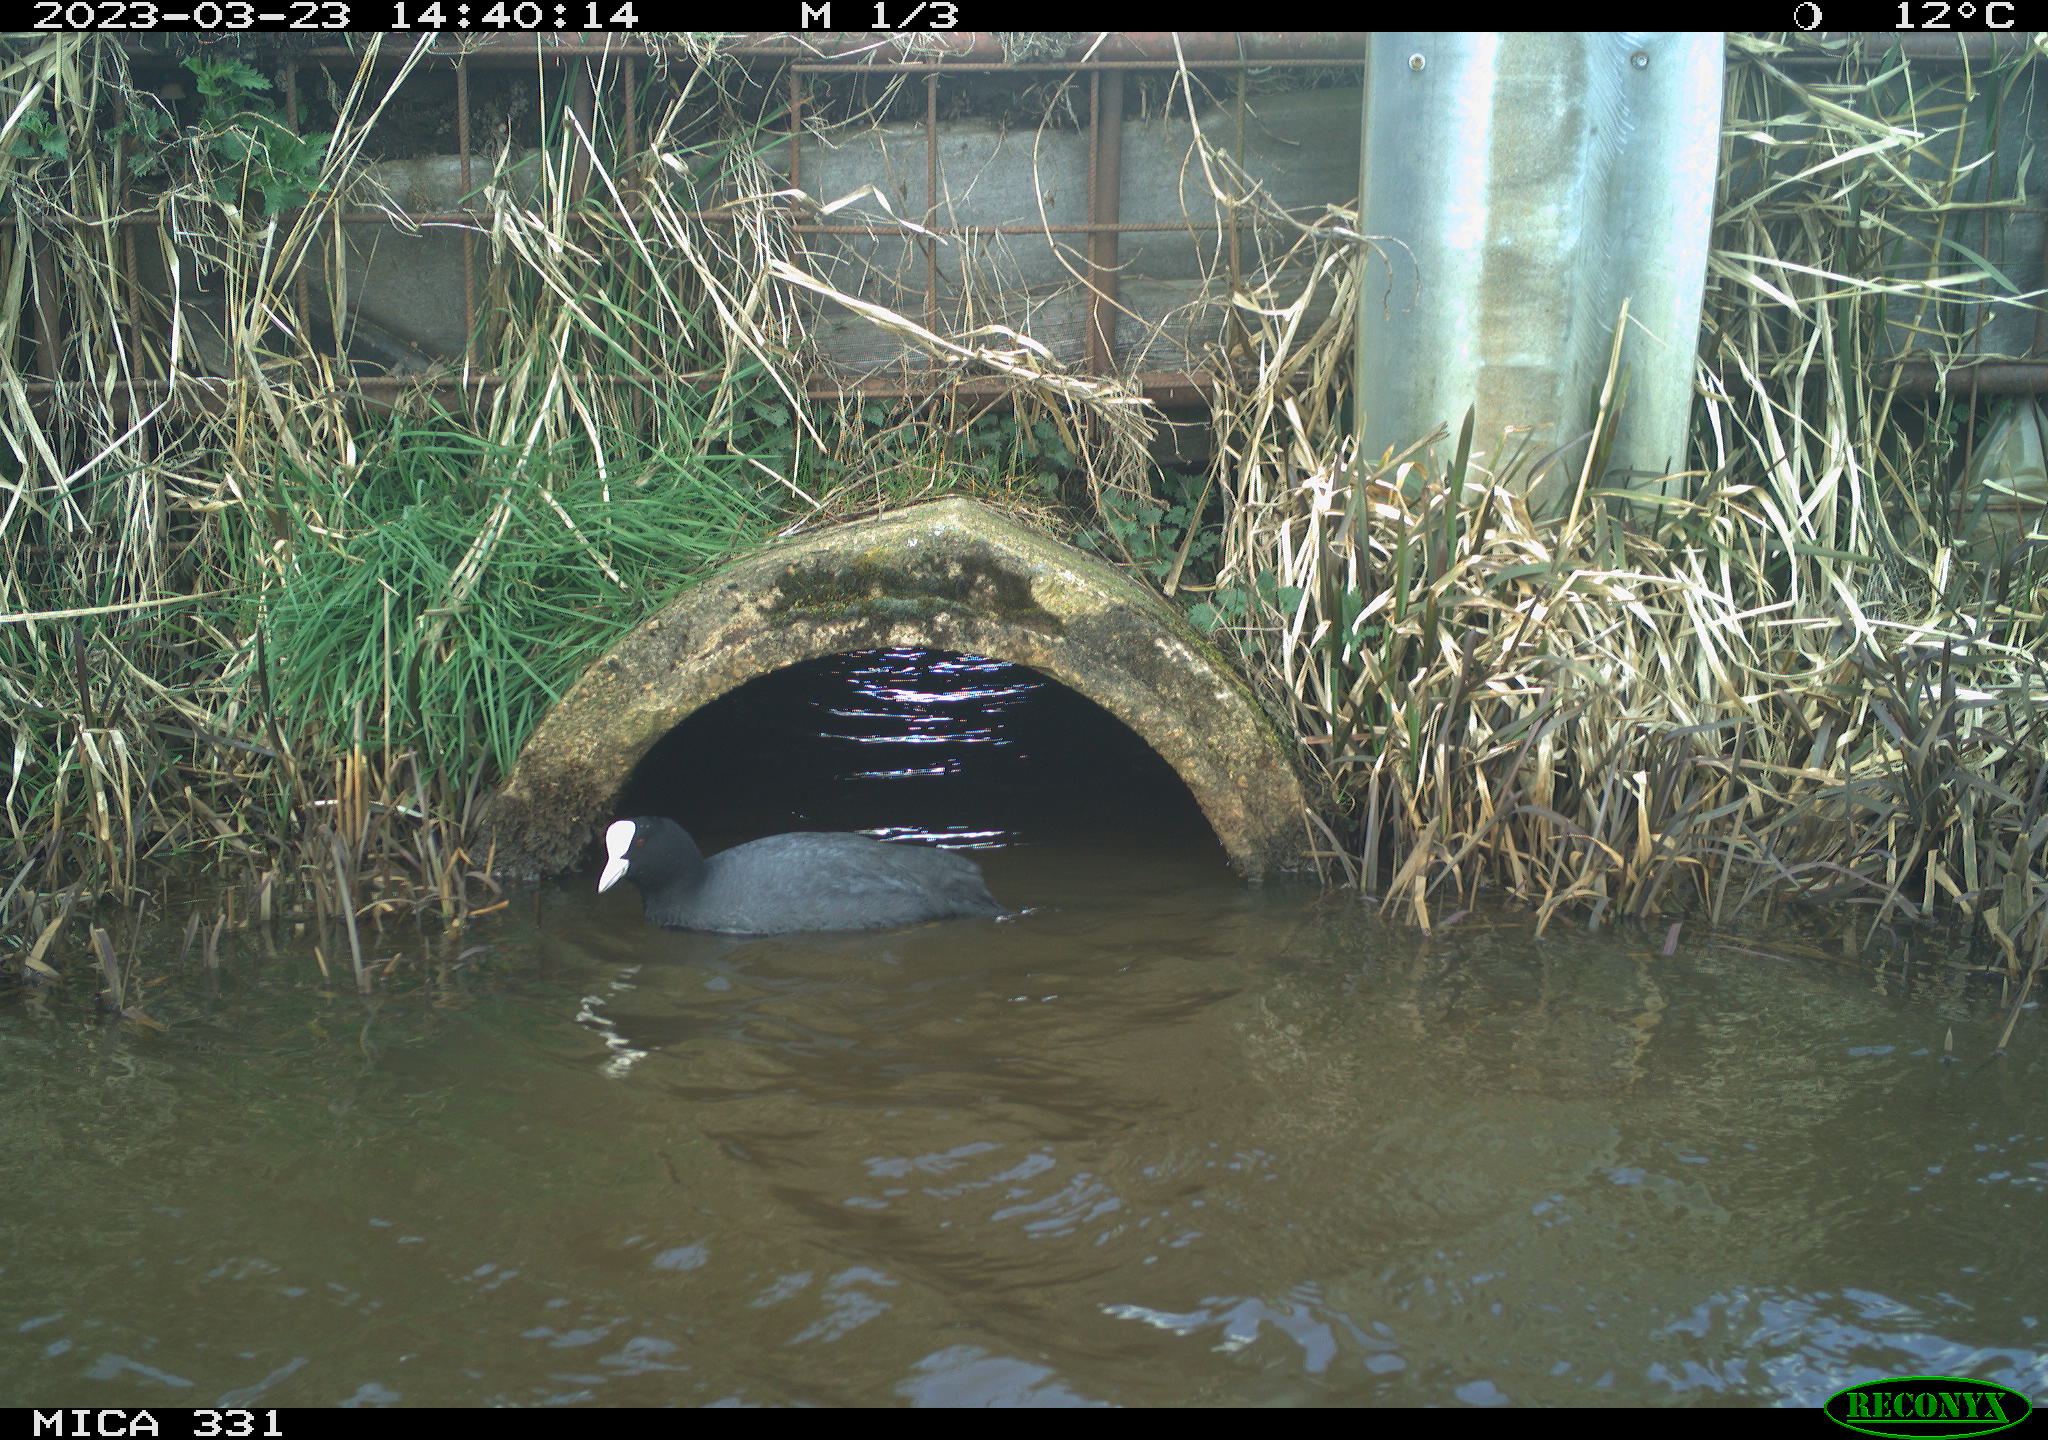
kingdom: Animalia
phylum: Chordata
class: Aves
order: Gruiformes
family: Rallidae
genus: Fulica
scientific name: Fulica atra
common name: Eurasian coot
